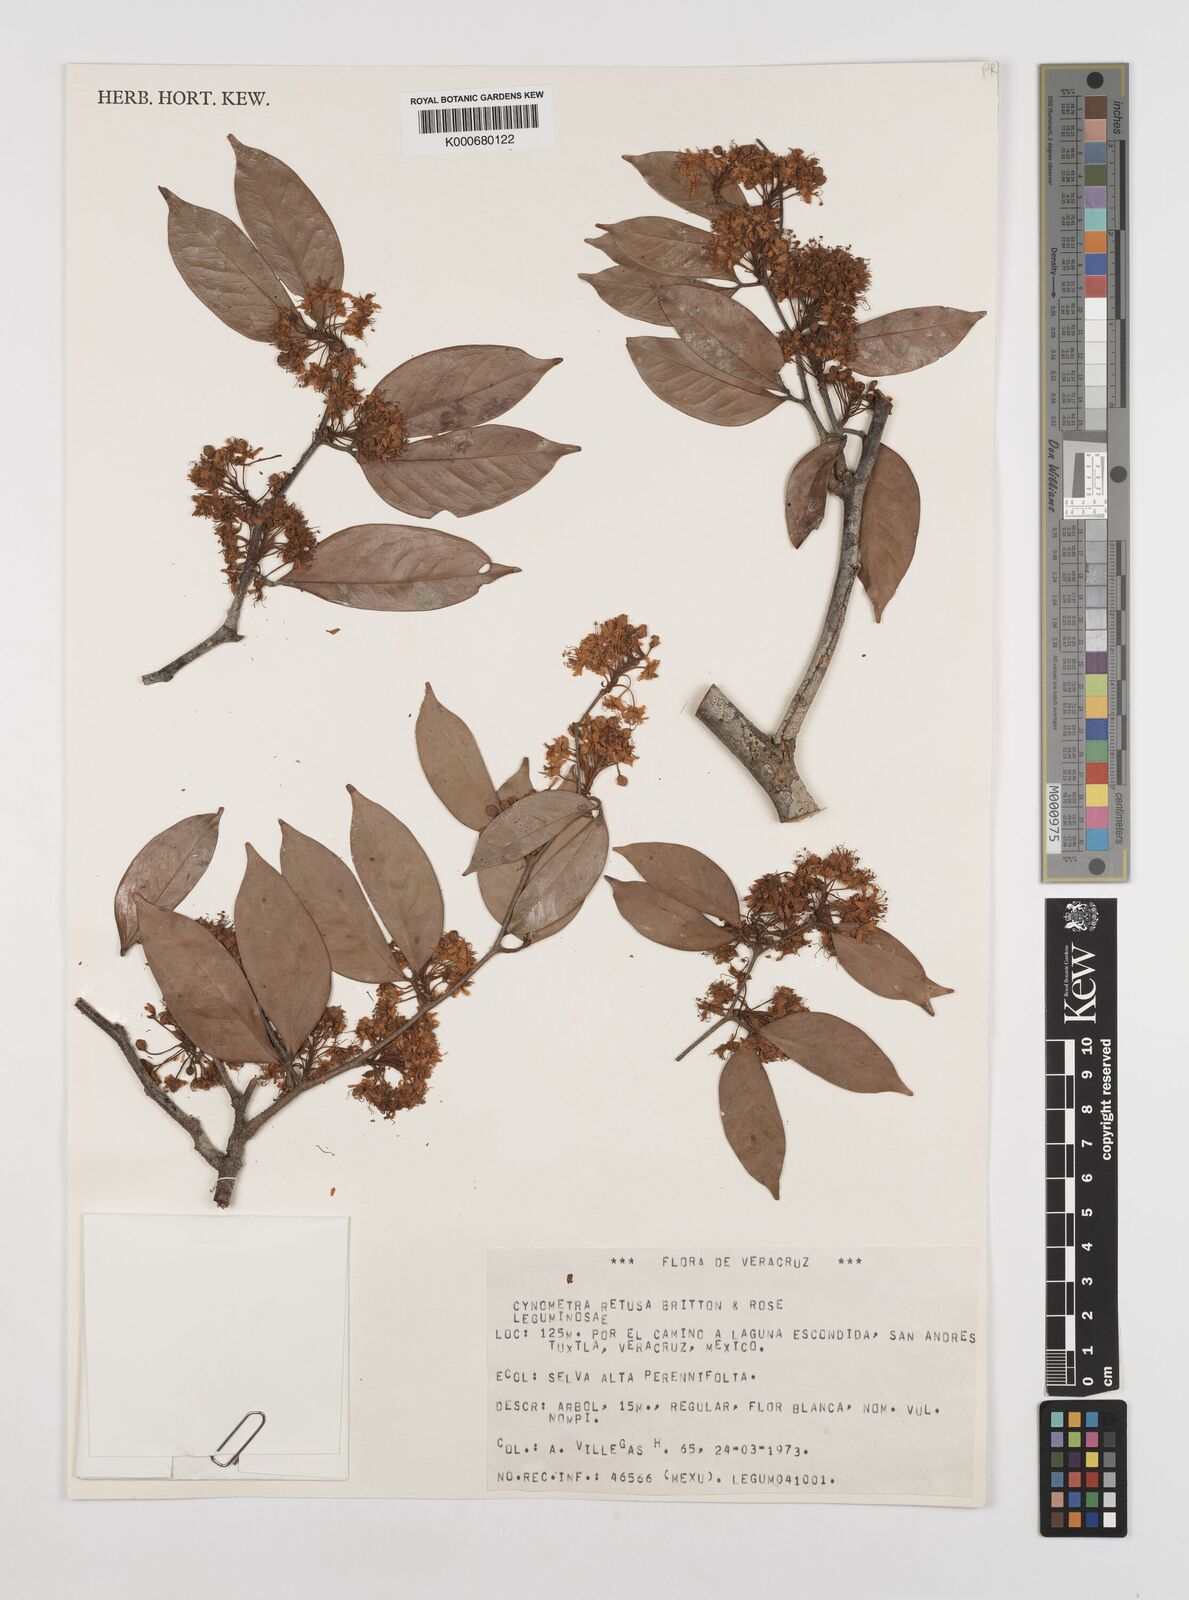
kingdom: Plantae
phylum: Tracheophyta
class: Magnoliopsida
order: Fabales
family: Fabaceae
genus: Cynometra
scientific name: Cynometra retusa
